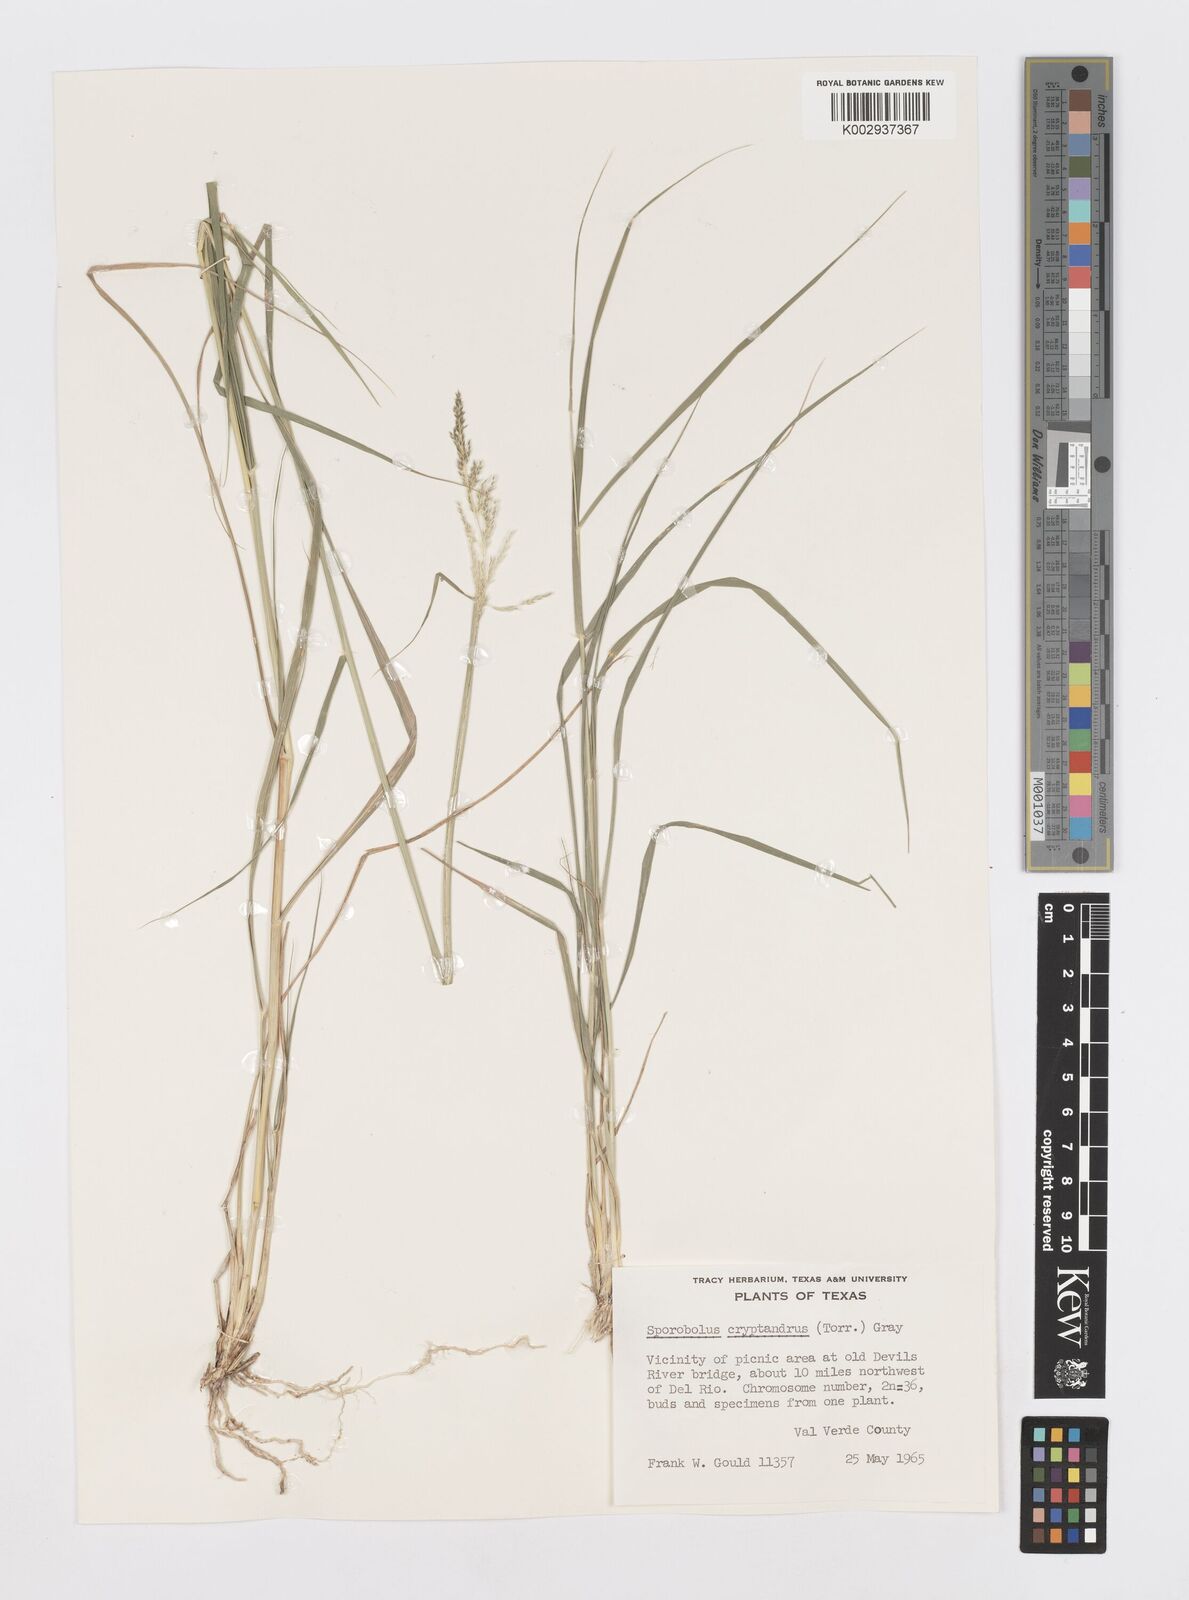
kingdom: Plantae
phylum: Tracheophyta
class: Liliopsida
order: Poales
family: Poaceae
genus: Sporobolus
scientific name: Sporobolus cryptandrus
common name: Sand dropseed
